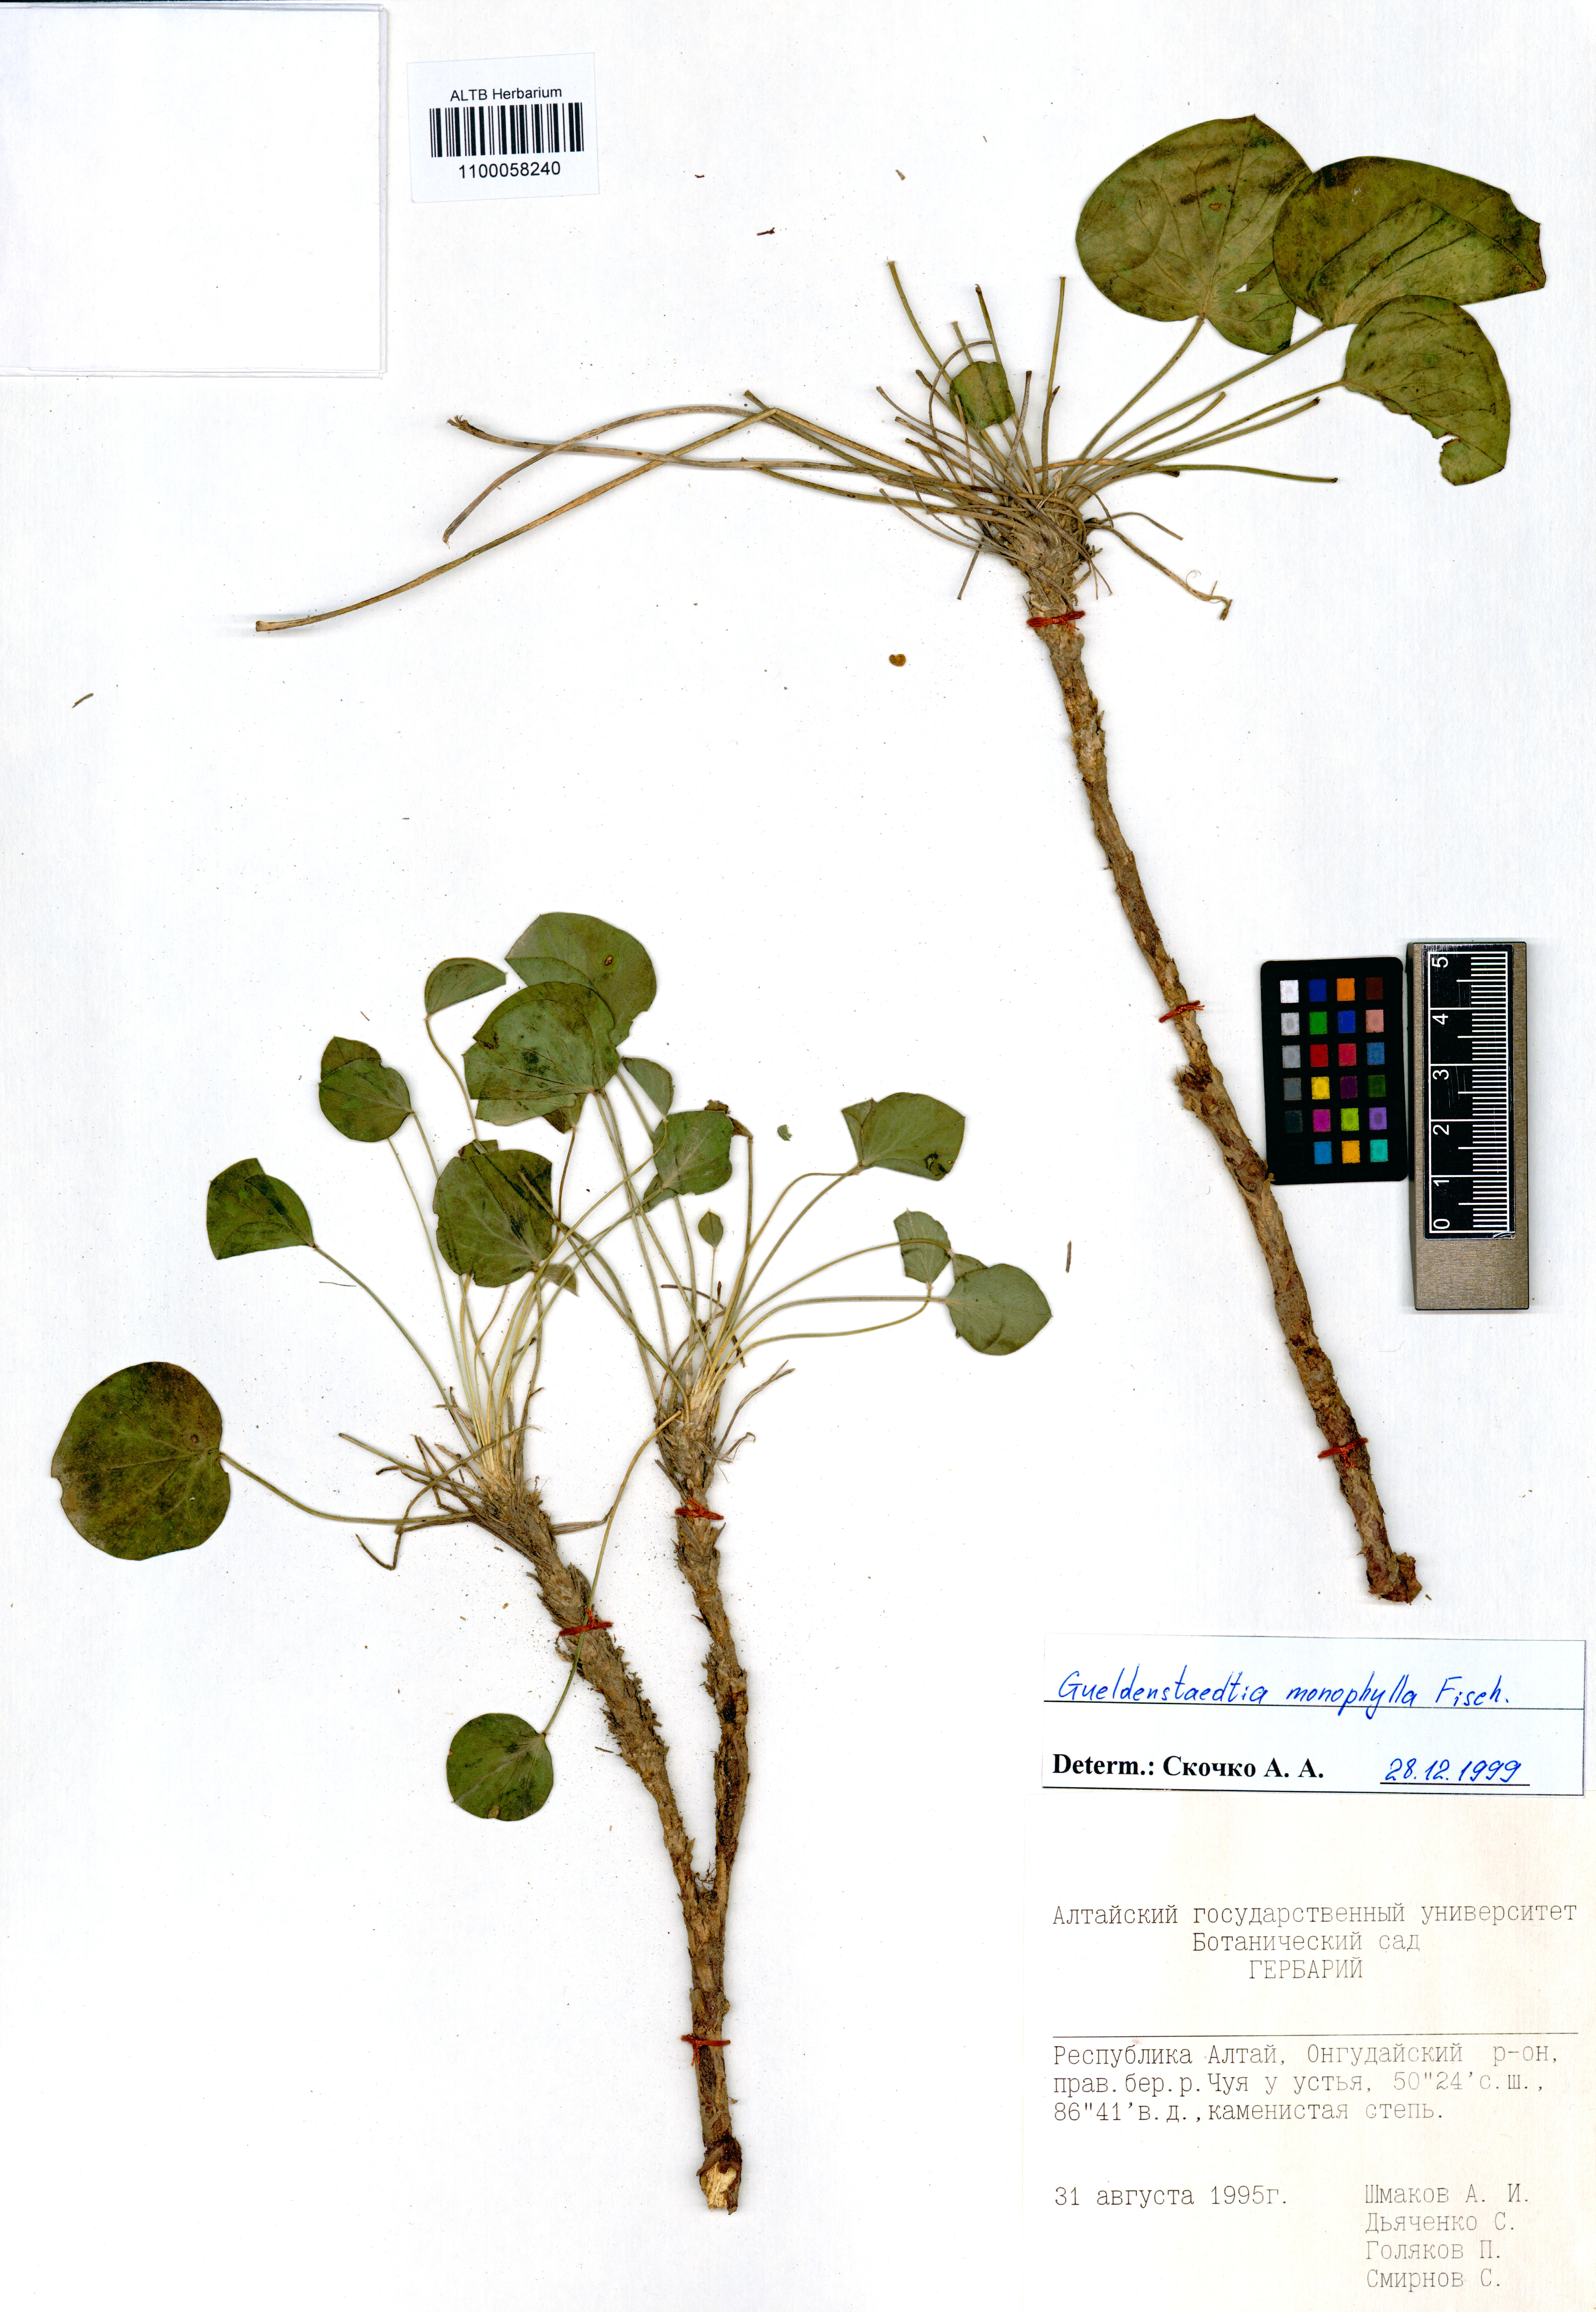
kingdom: Plantae
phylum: Tracheophyta
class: Magnoliopsida
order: Fabales
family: Fabaceae
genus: Gueldenstaedtia
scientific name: Gueldenstaedtia monophylla
